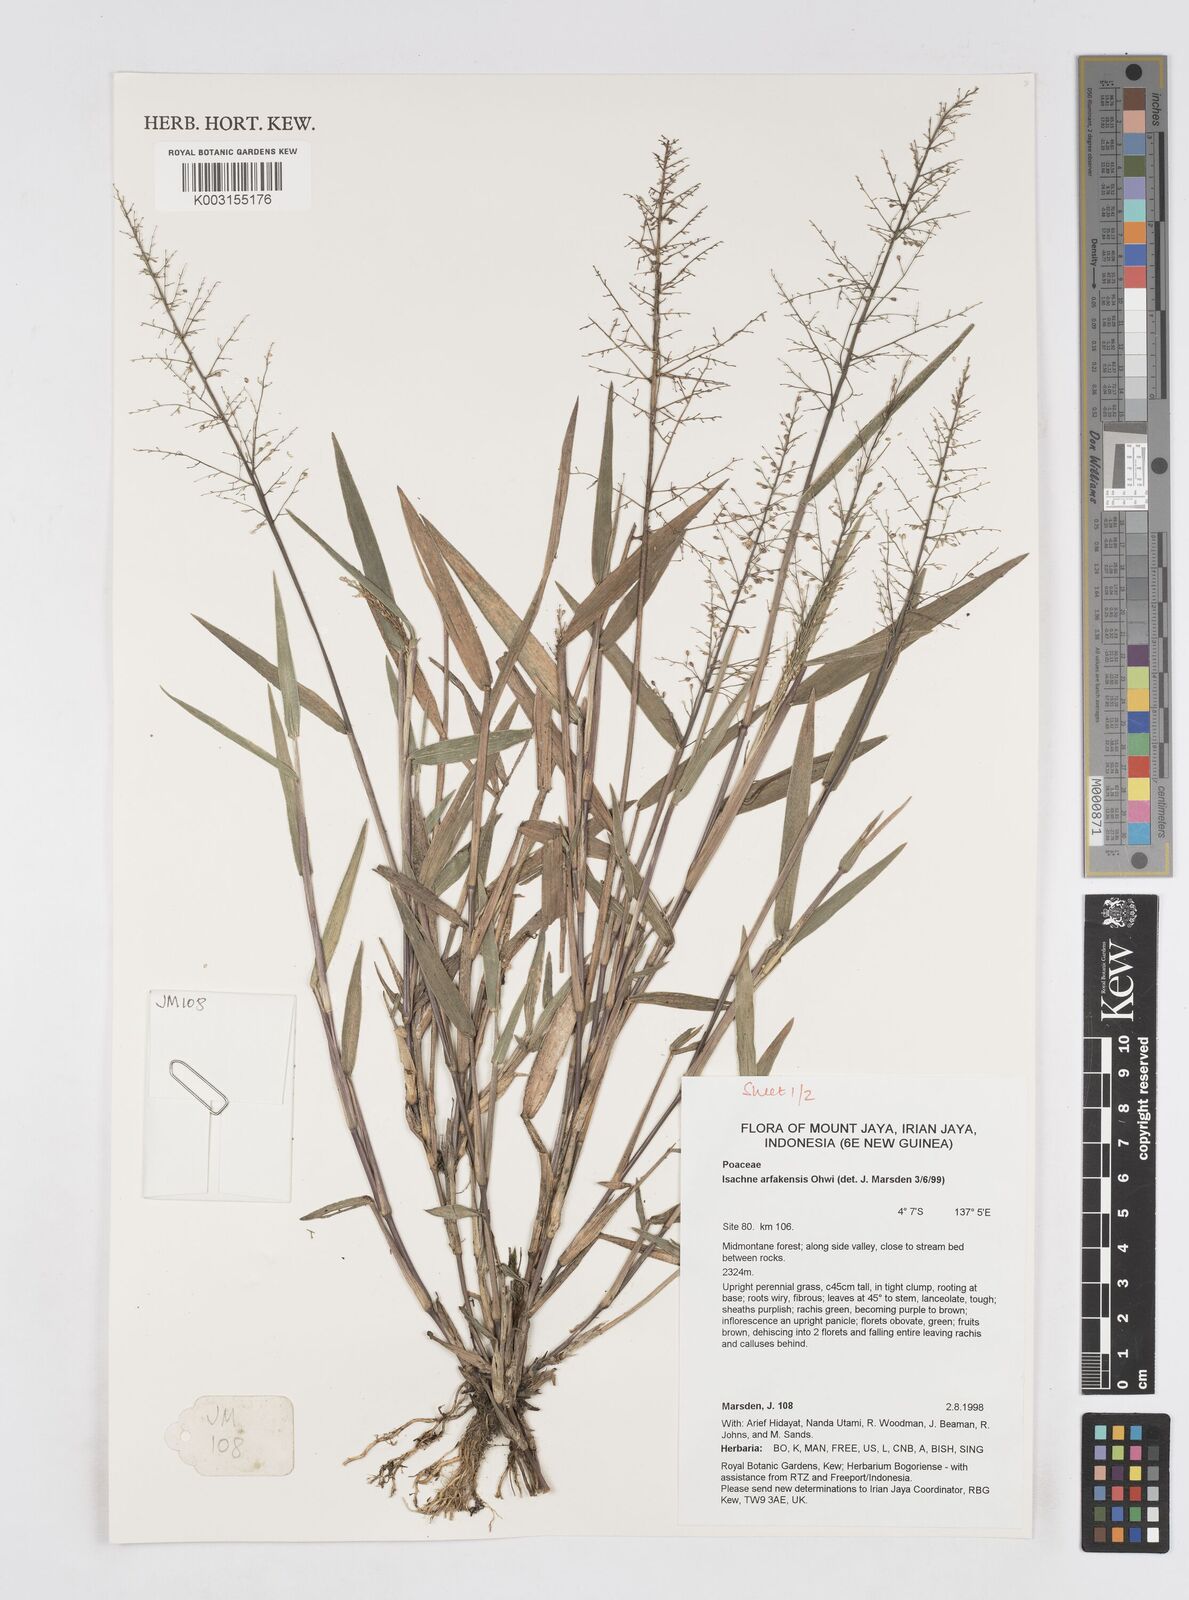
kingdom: Plantae
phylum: Tracheophyta
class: Liliopsida
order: Poales
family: Poaceae
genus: Isachne
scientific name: Isachne arfakensis
